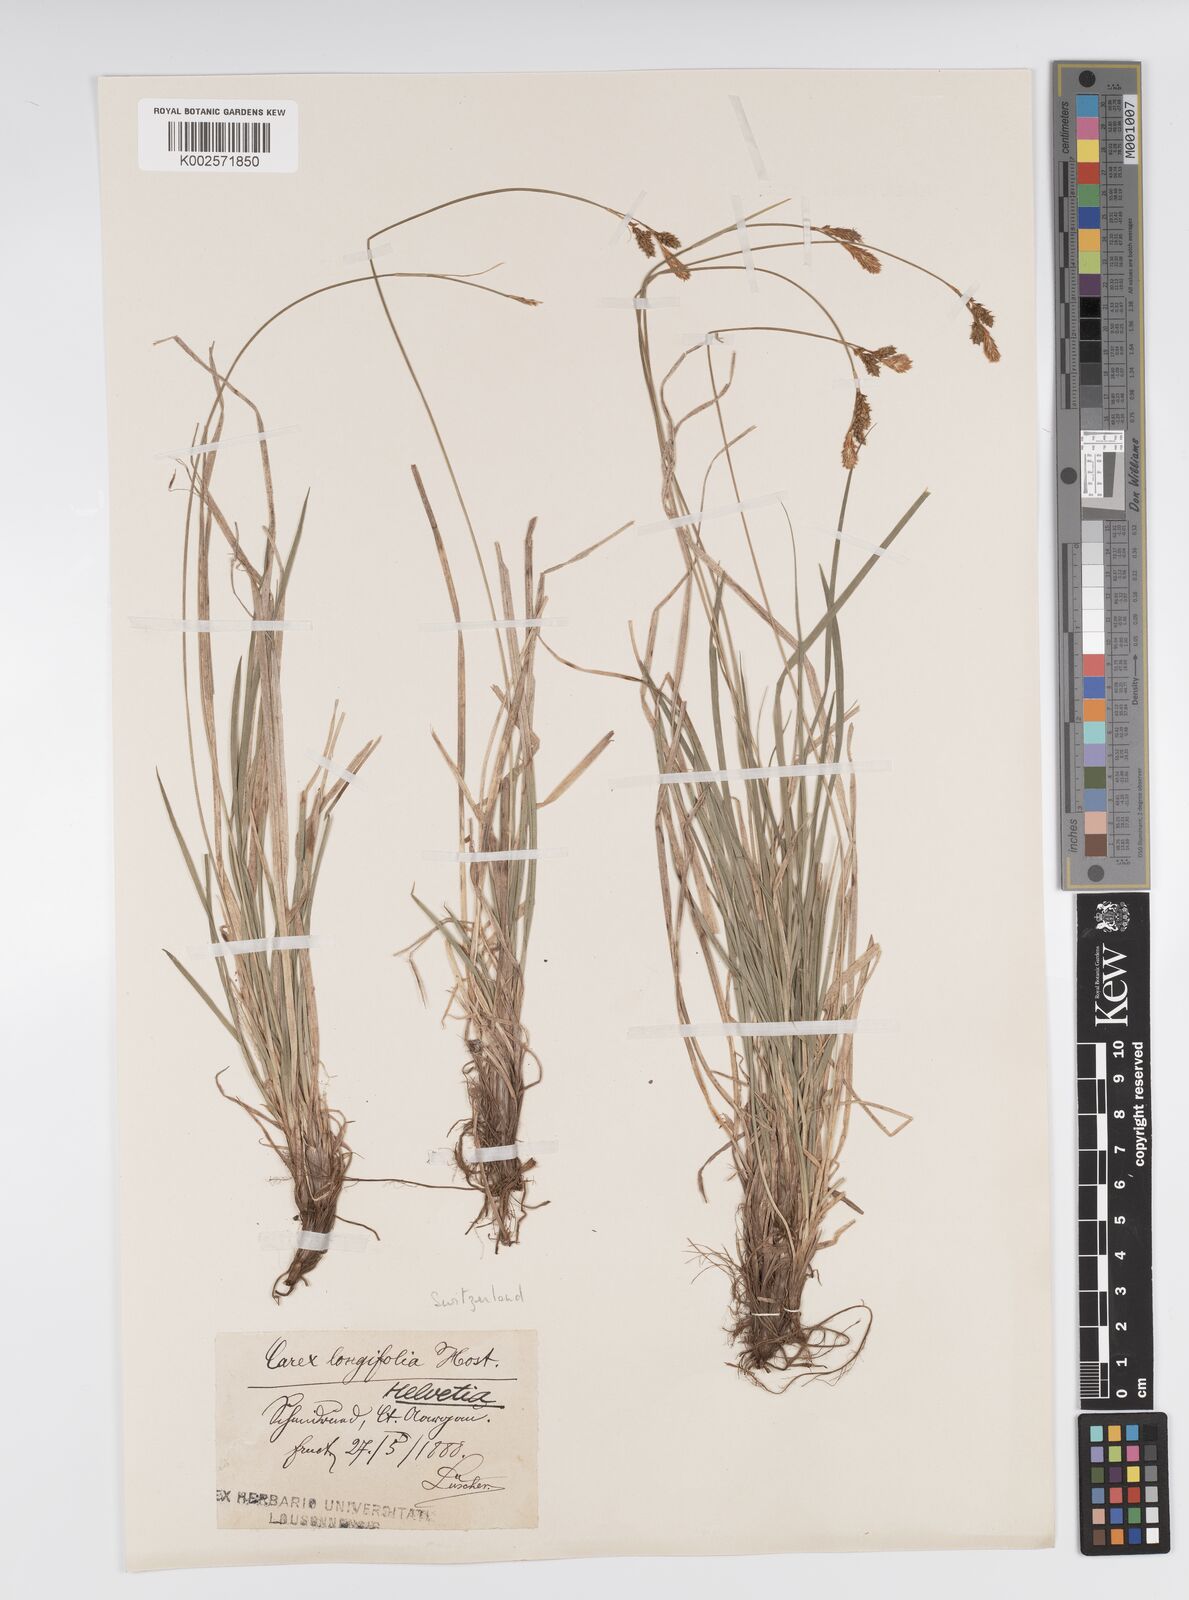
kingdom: Plantae
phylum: Tracheophyta
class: Liliopsida
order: Poales
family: Cyperaceae
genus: Carex
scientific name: Carex umbrosa
